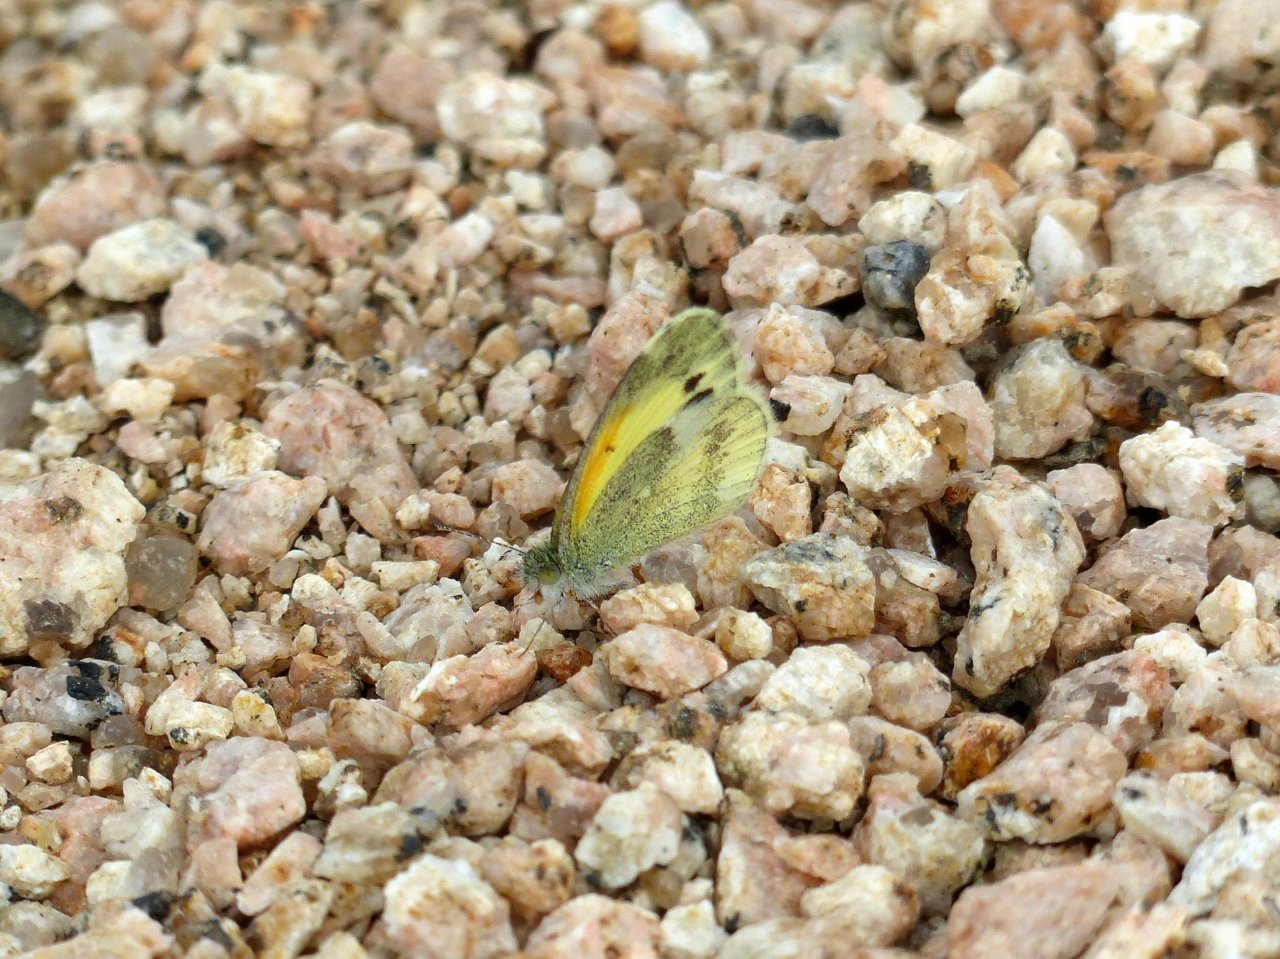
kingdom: Animalia
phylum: Arthropoda
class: Insecta
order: Lepidoptera
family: Pieridae
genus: Nathalis
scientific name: Nathalis iole
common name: Dainty Sulphur
